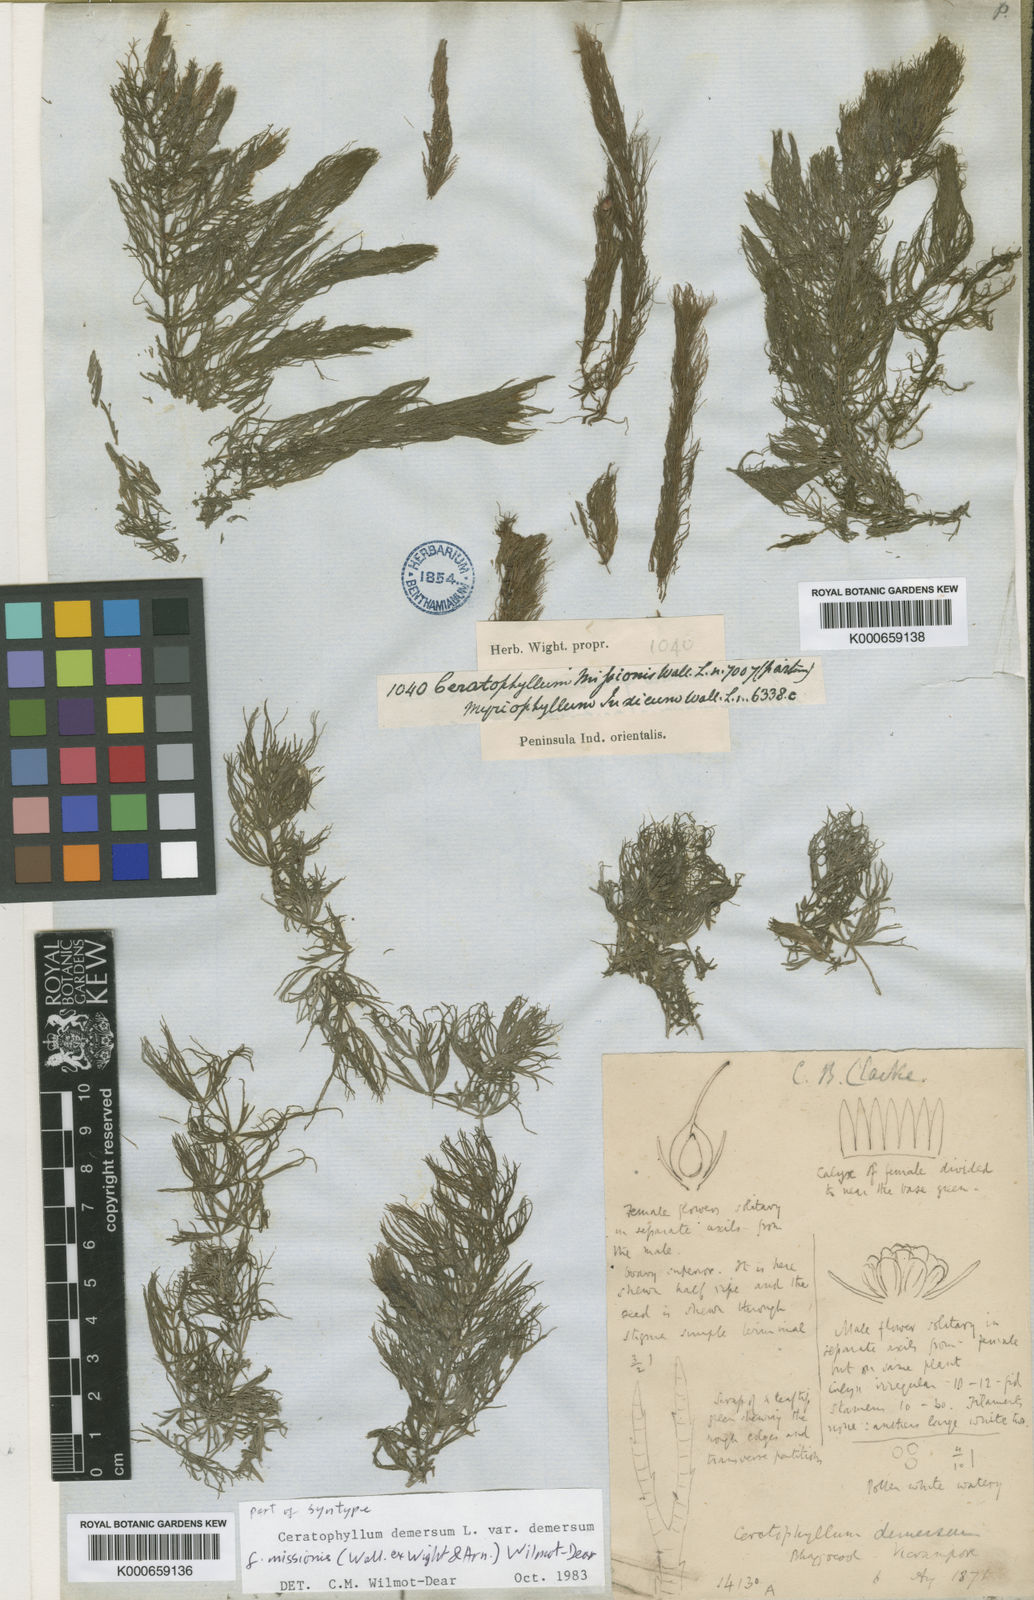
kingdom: Plantae
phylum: Tracheophyta
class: Magnoliopsida
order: Ceratophyllales
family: Ceratophyllaceae
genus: Ceratophyllum
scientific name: Ceratophyllum demersum
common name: Rigid hornwort
